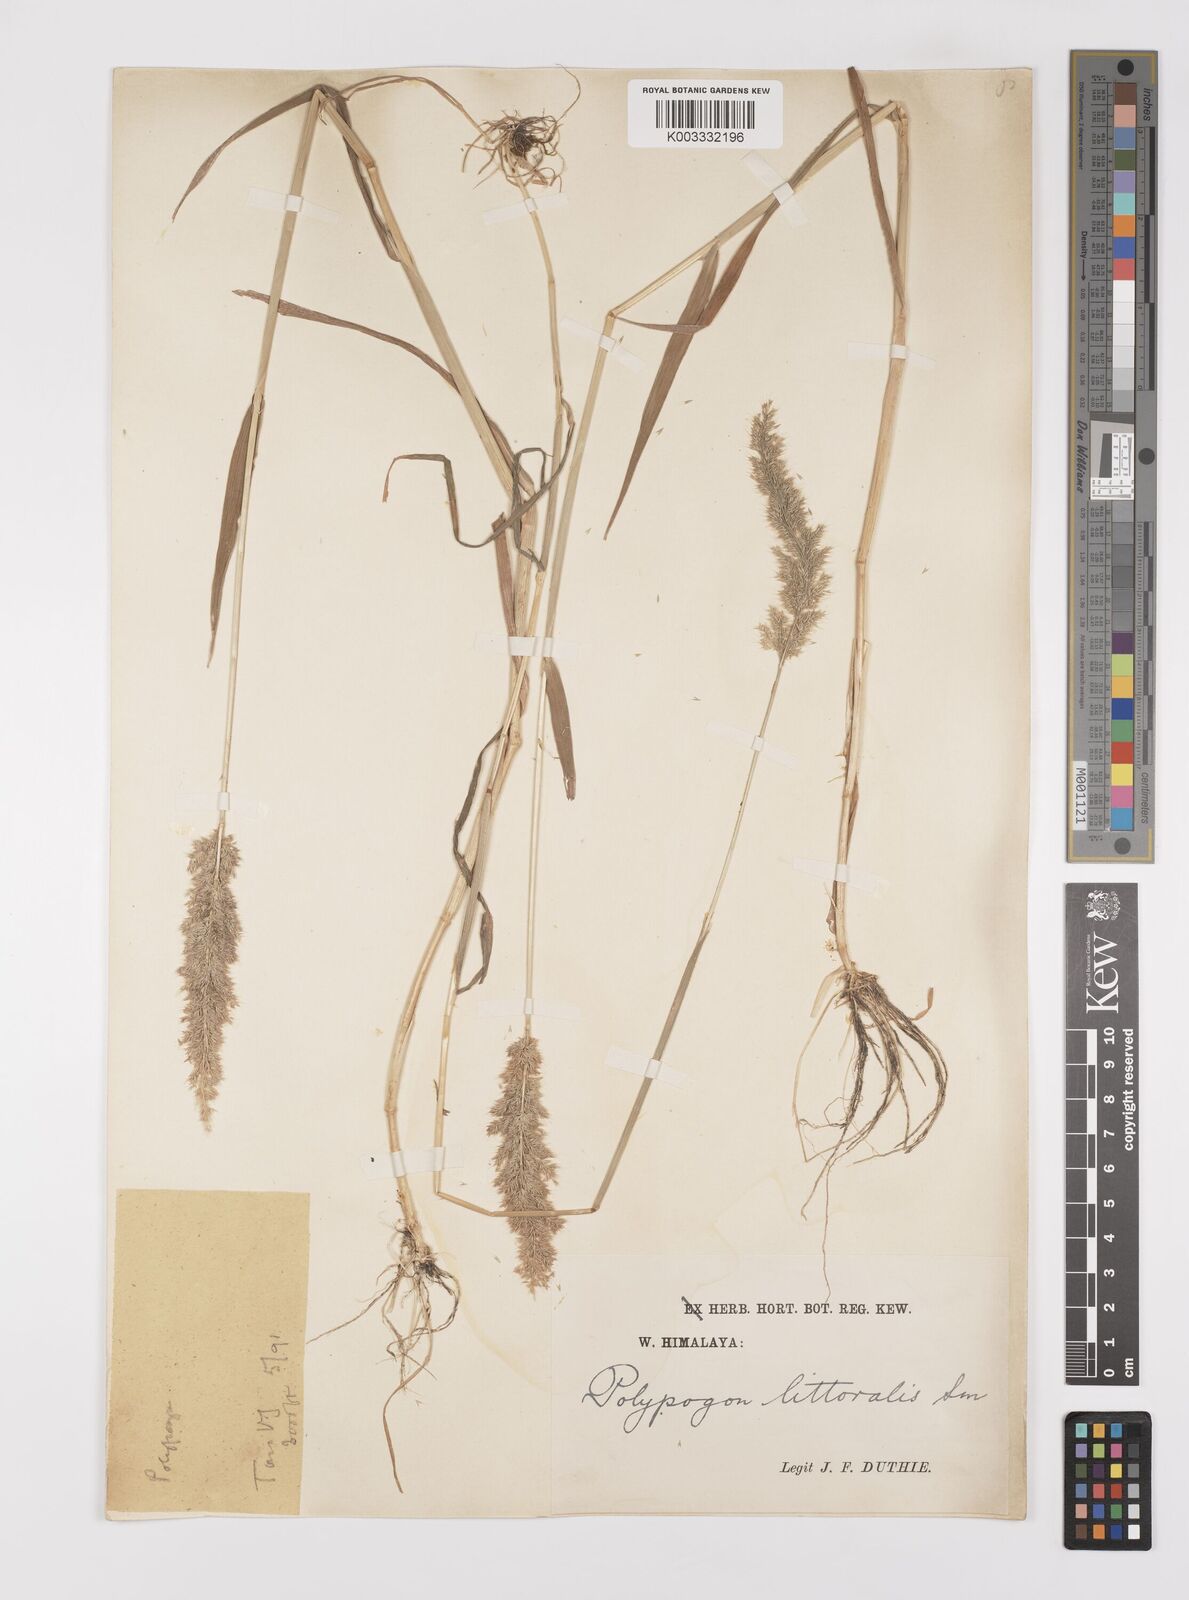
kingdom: Plantae
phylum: Tracheophyta
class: Liliopsida
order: Poales
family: Poaceae
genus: Polypogon
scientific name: Polypogon fugax
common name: Asia minor bluegrass
